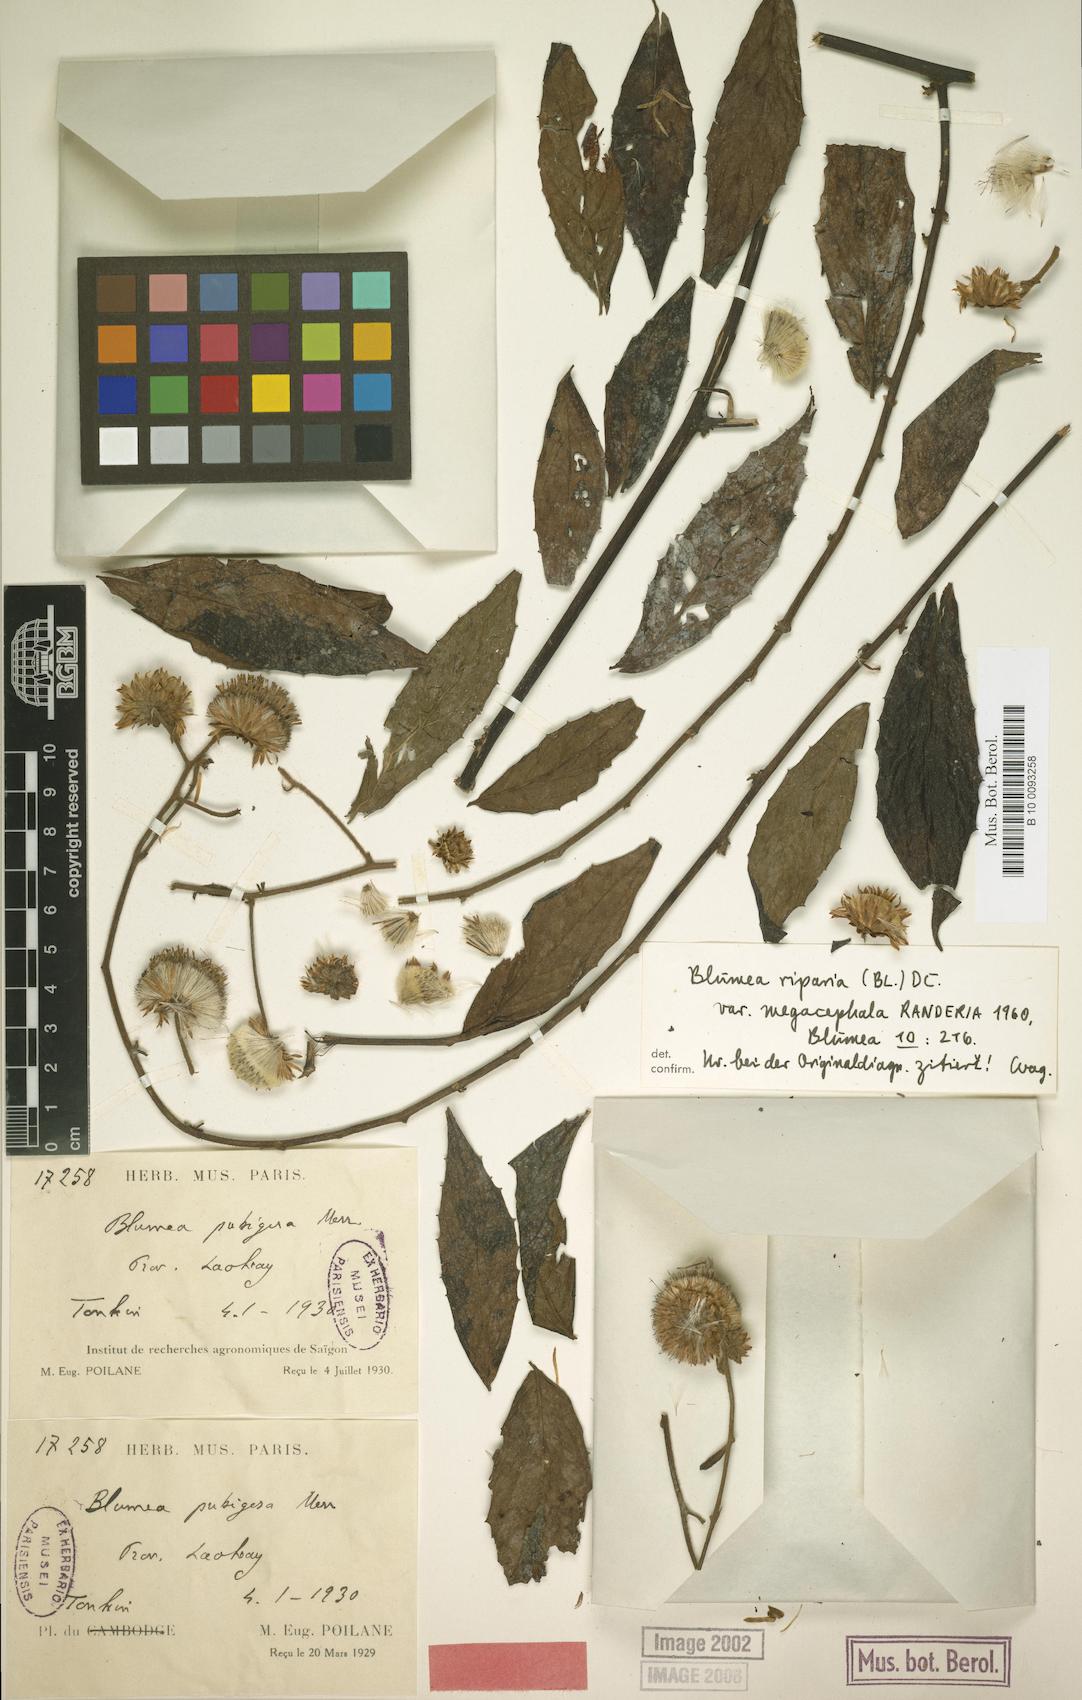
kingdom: Plantae
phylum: Tracheophyta
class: Magnoliopsida
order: Asterales
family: Asteraceae
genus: Blumea
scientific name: Blumea megacephala
